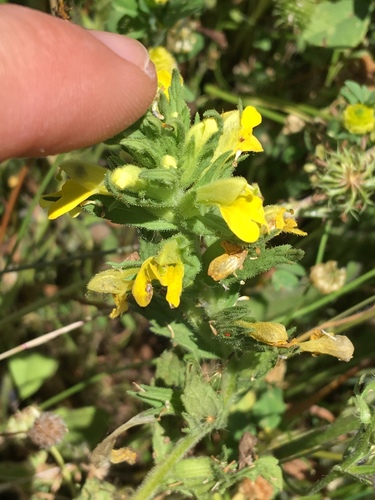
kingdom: Plantae
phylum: Tracheophyta
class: Magnoliopsida
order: Lamiales
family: Orobanchaceae
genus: Bellardia
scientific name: Bellardia viscosa
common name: Sticky parentucellia
